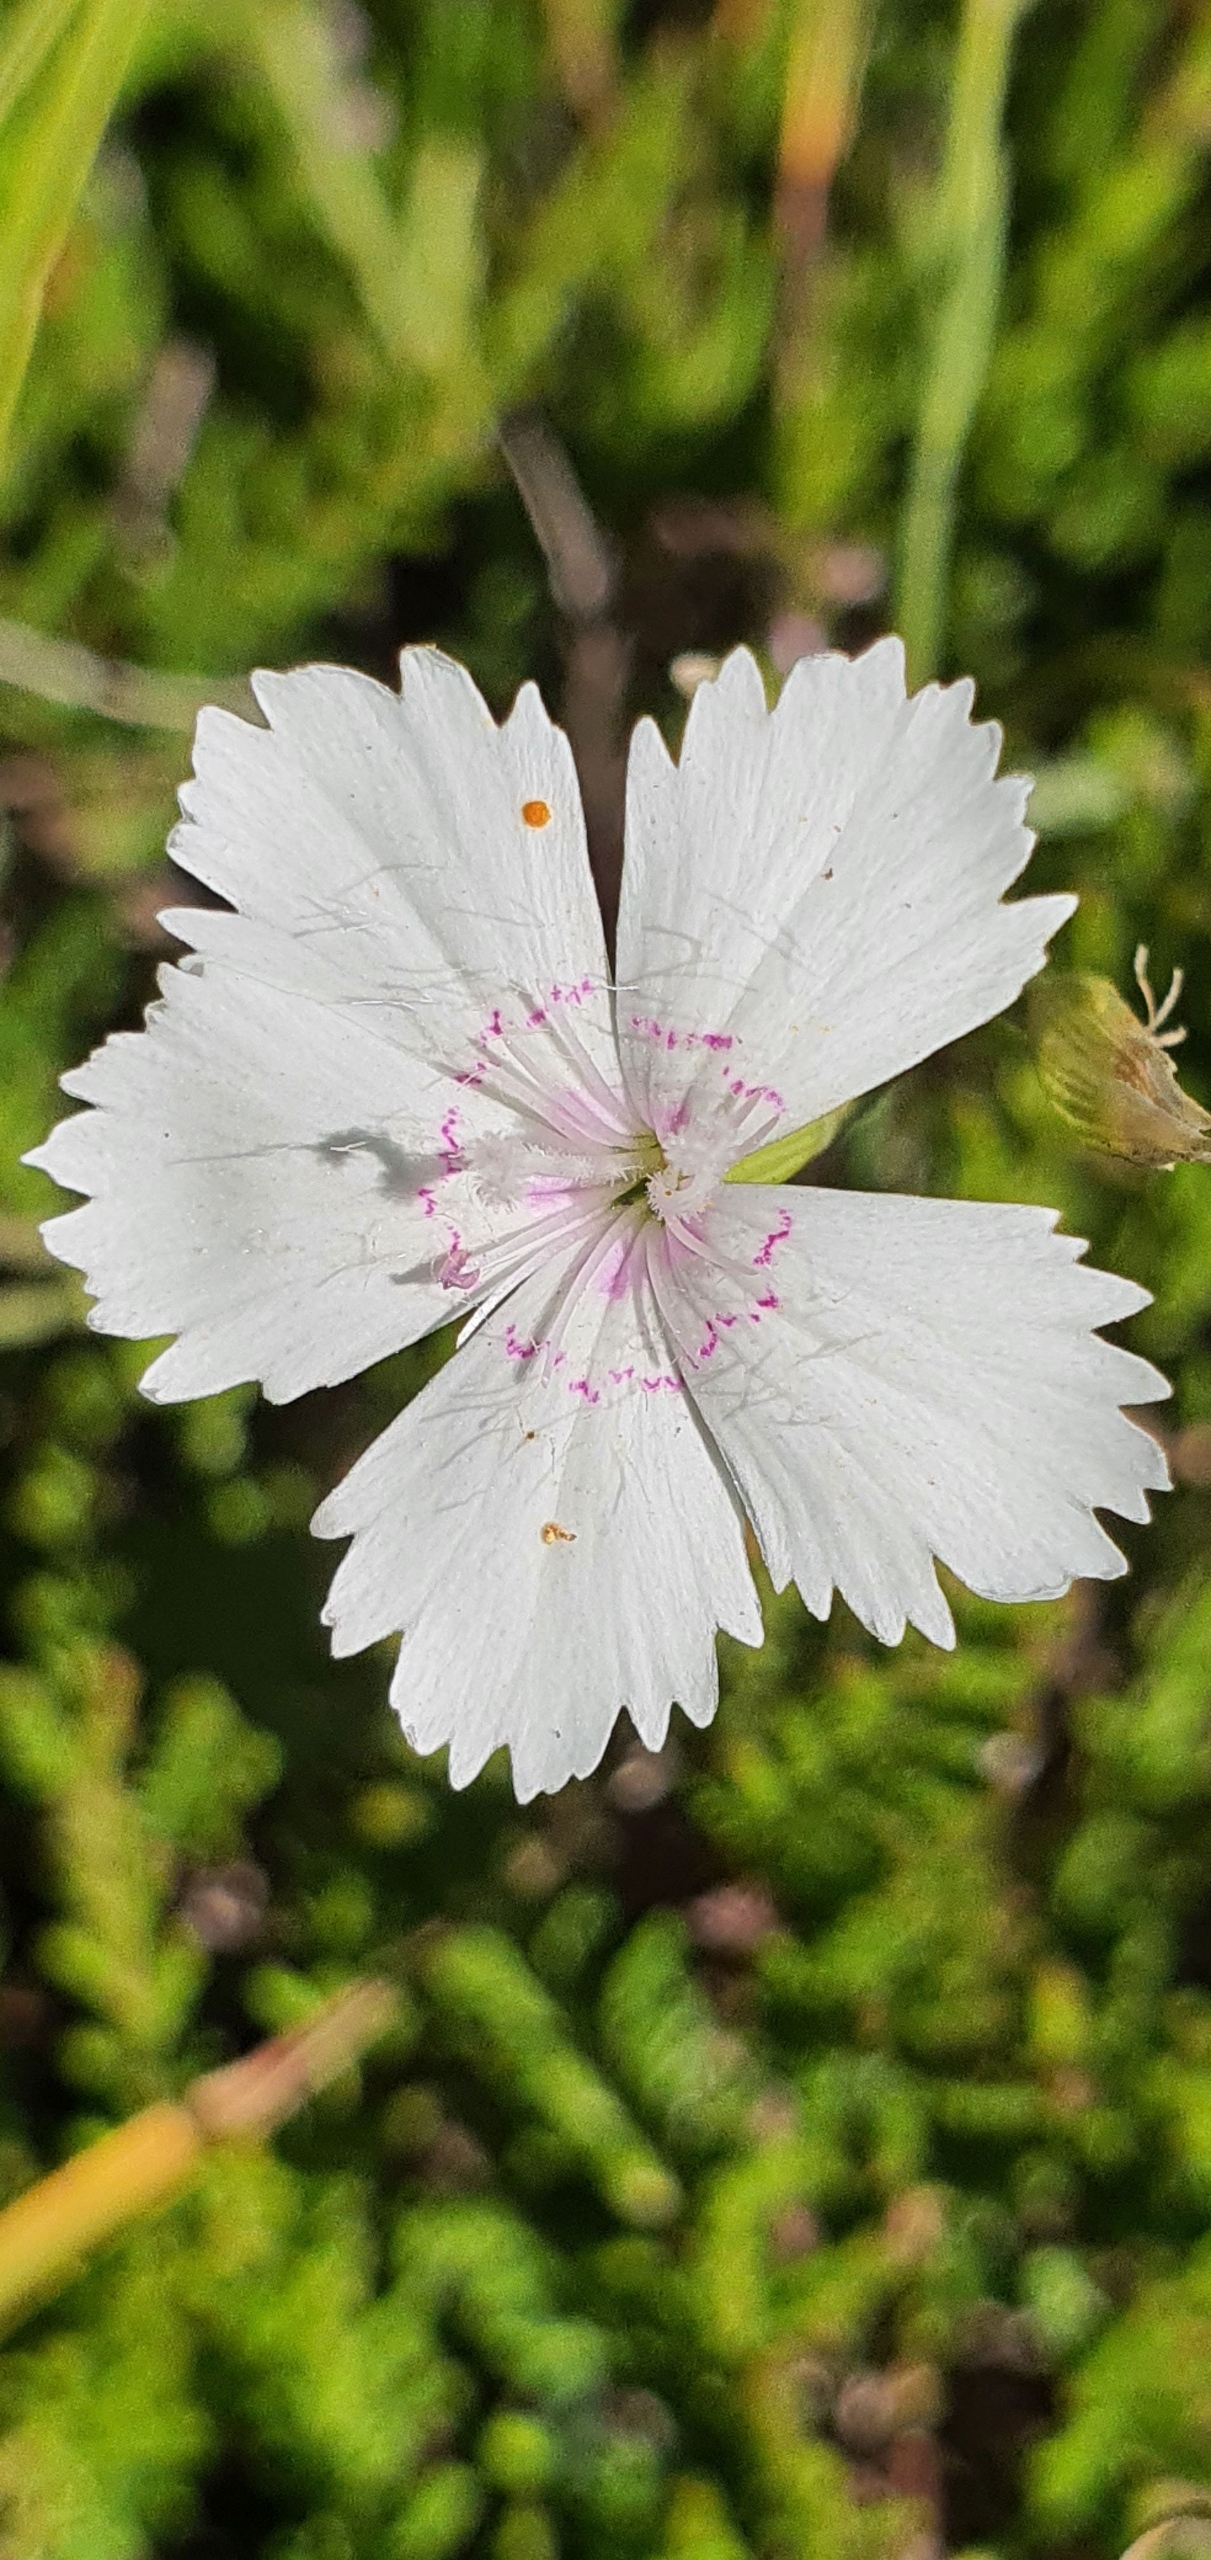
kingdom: Plantae
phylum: Tracheophyta
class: Magnoliopsida
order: Caryophyllales
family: Caryophyllaceae
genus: Dianthus
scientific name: Dianthus deltoides
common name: Bakke-nellike
